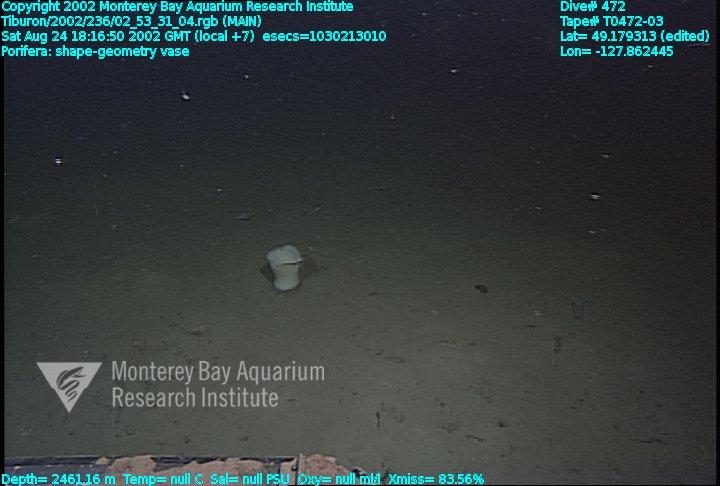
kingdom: Animalia
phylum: Porifera
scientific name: Porifera
